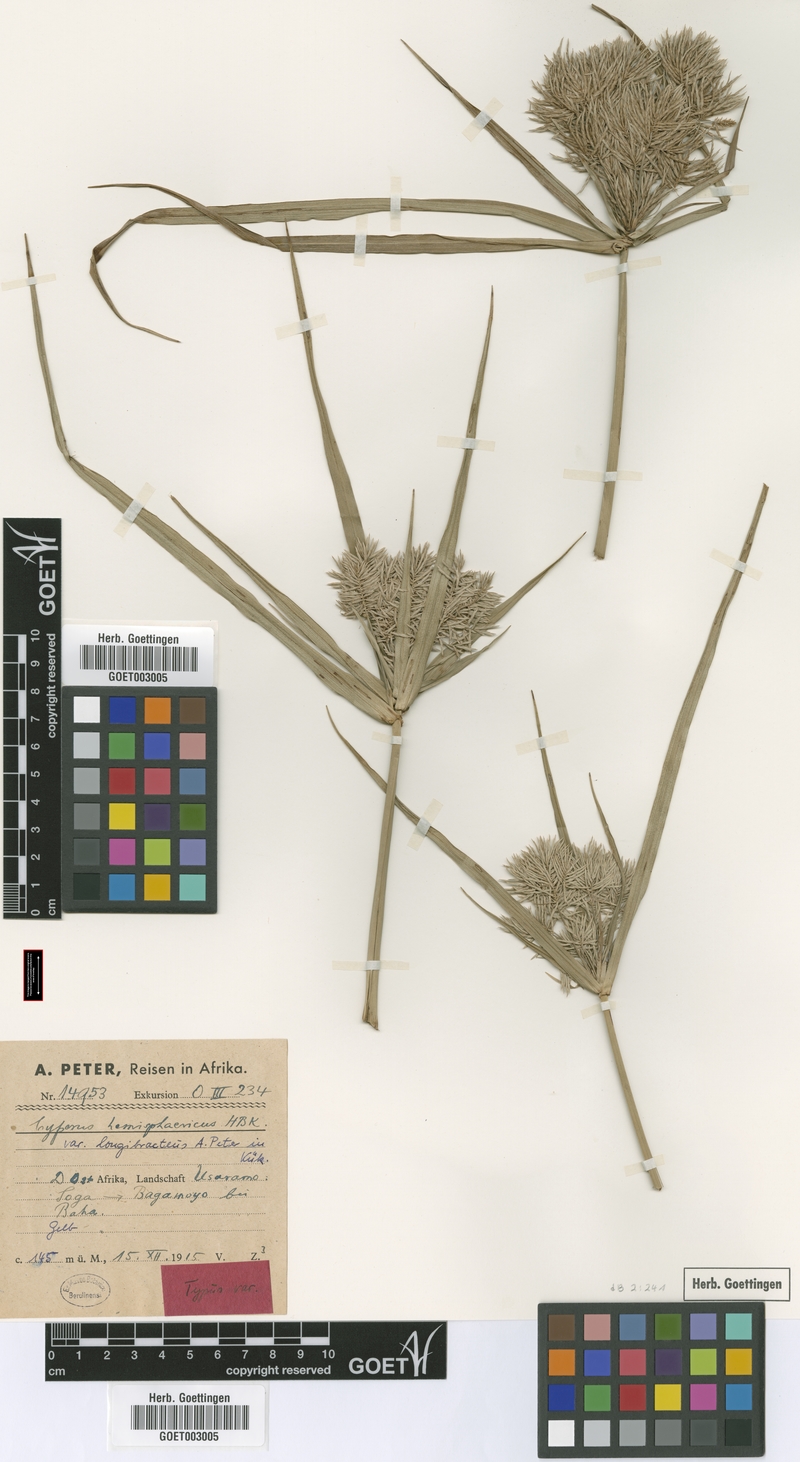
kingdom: Plantae
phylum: Tracheophyta
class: Liliopsida
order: Poales
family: Cyperaceae
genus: Cyperus
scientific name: Cyperus hemisphaericus
